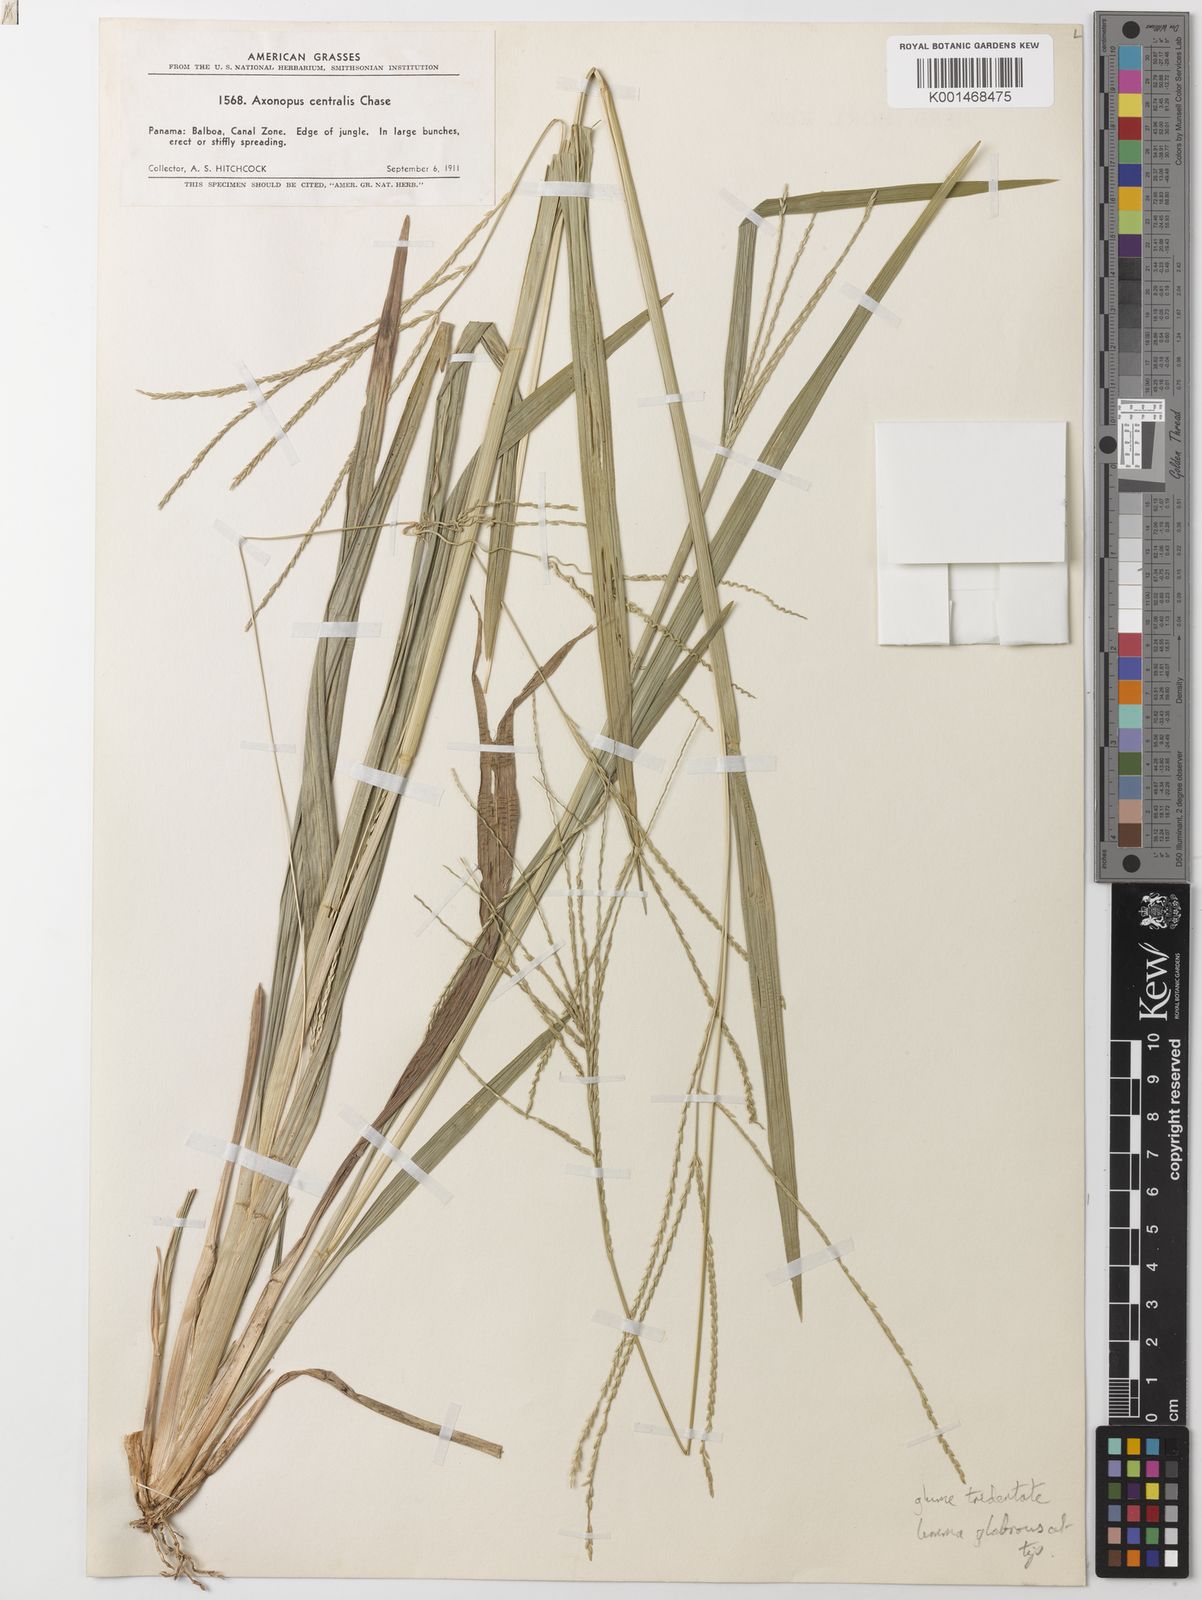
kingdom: Plantae
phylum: Tracheophyta
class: Liliopsida
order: Poales
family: Poaceae
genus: Axonopus
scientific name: Axonopus centralis
